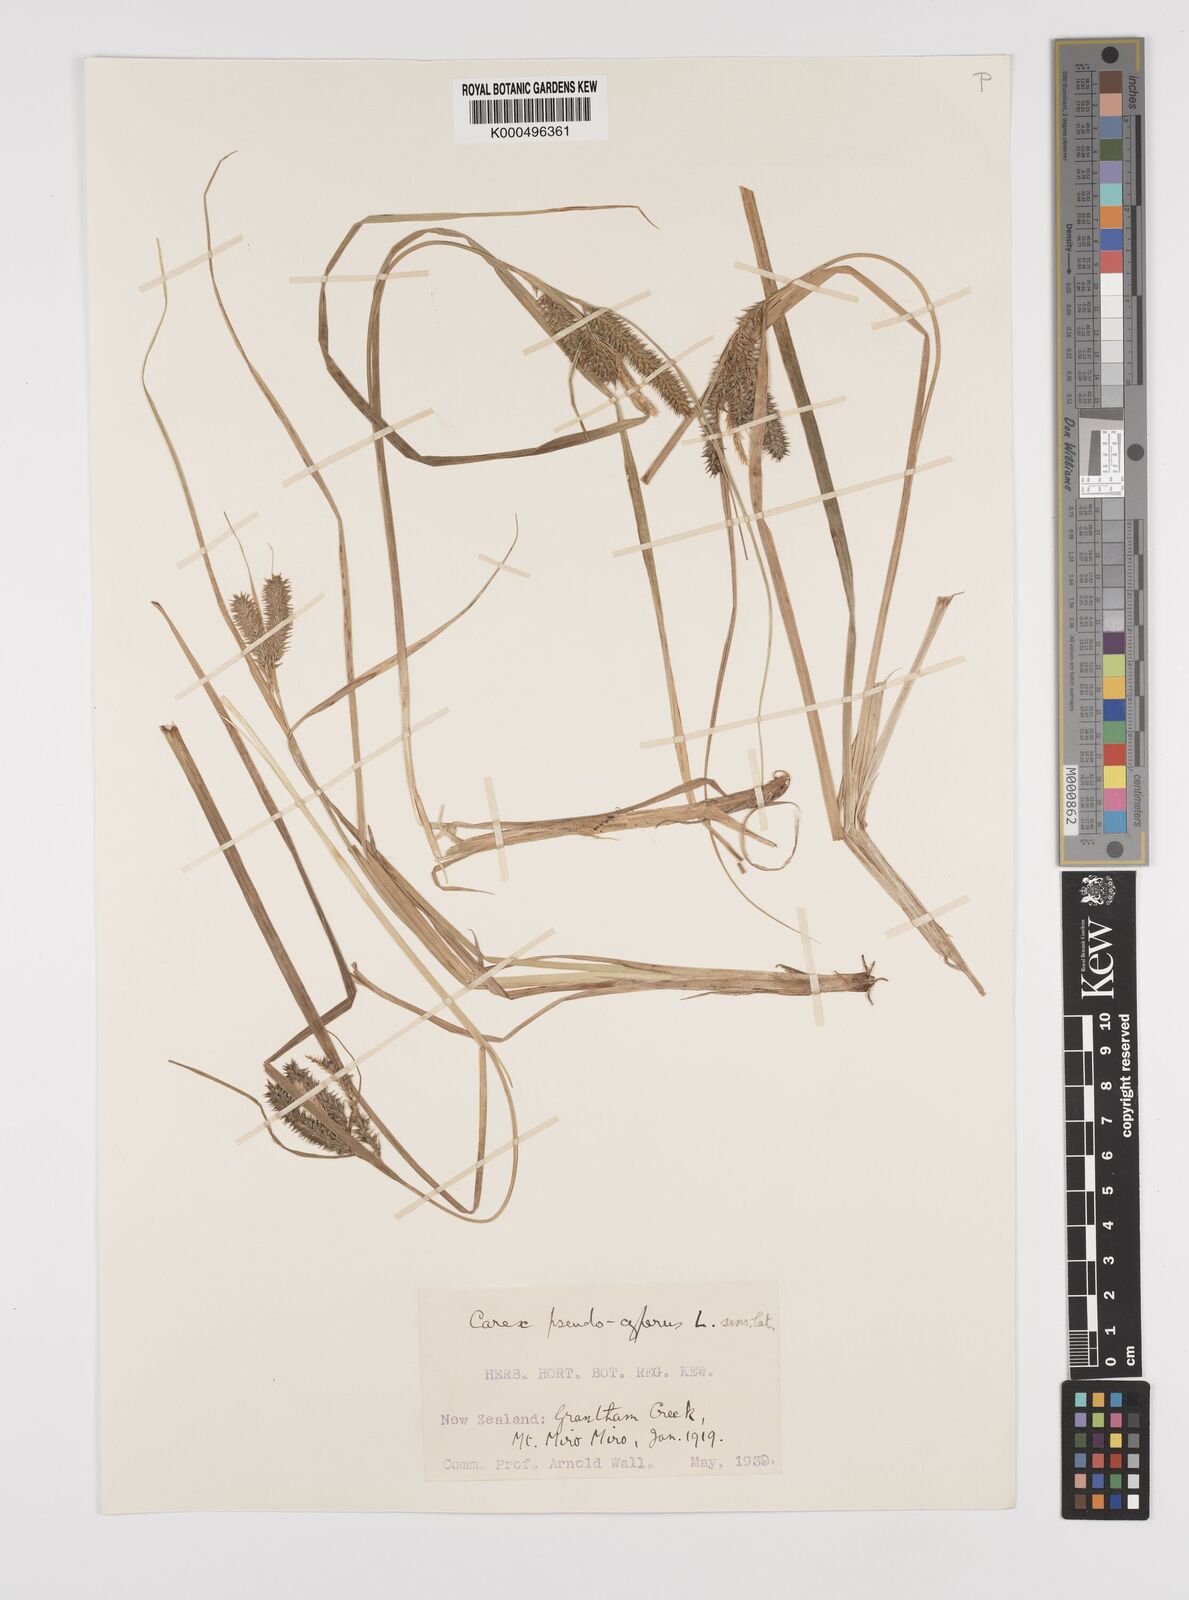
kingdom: Plantae
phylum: Tracheophyta
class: Liliopsida
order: Poales
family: Cyperaceae
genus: Carex
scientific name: Carex maorica
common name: Maori sedge
